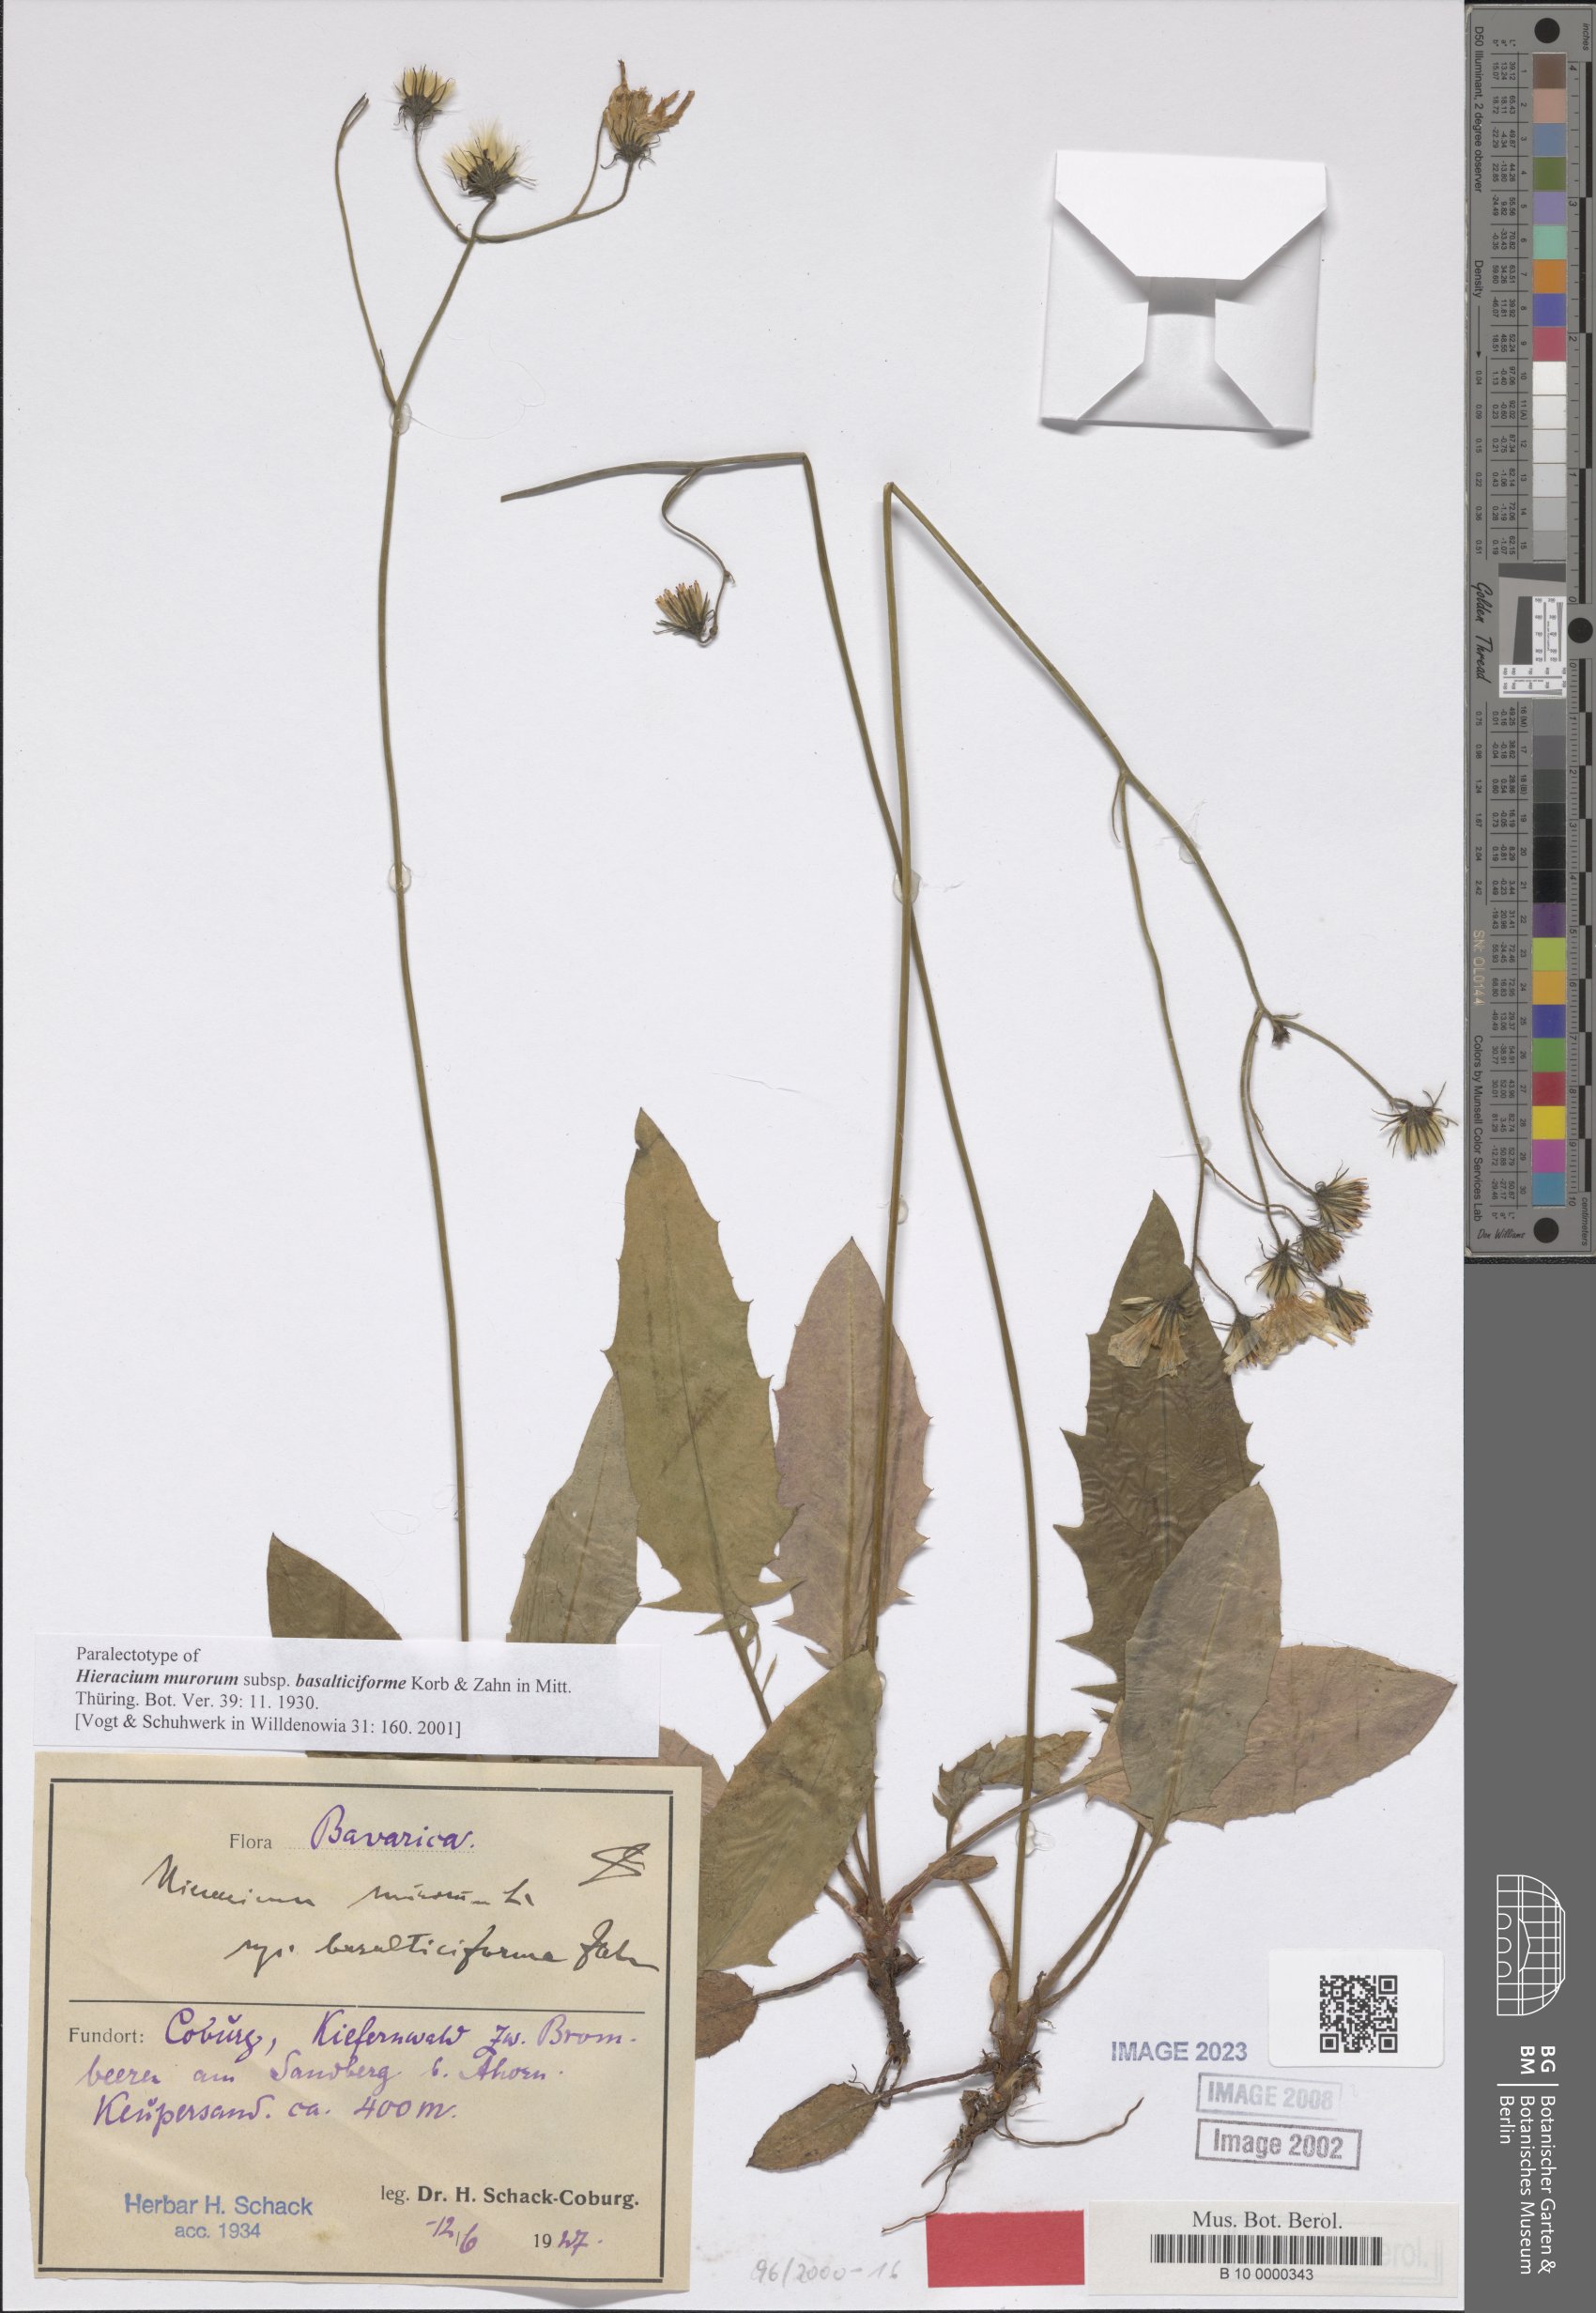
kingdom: Plantae
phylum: Tracheophyta
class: Magnoliopsida
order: Asterales
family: Asteraceae
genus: Hieracium
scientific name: Hieracium murorum
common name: Wall hawkweed
